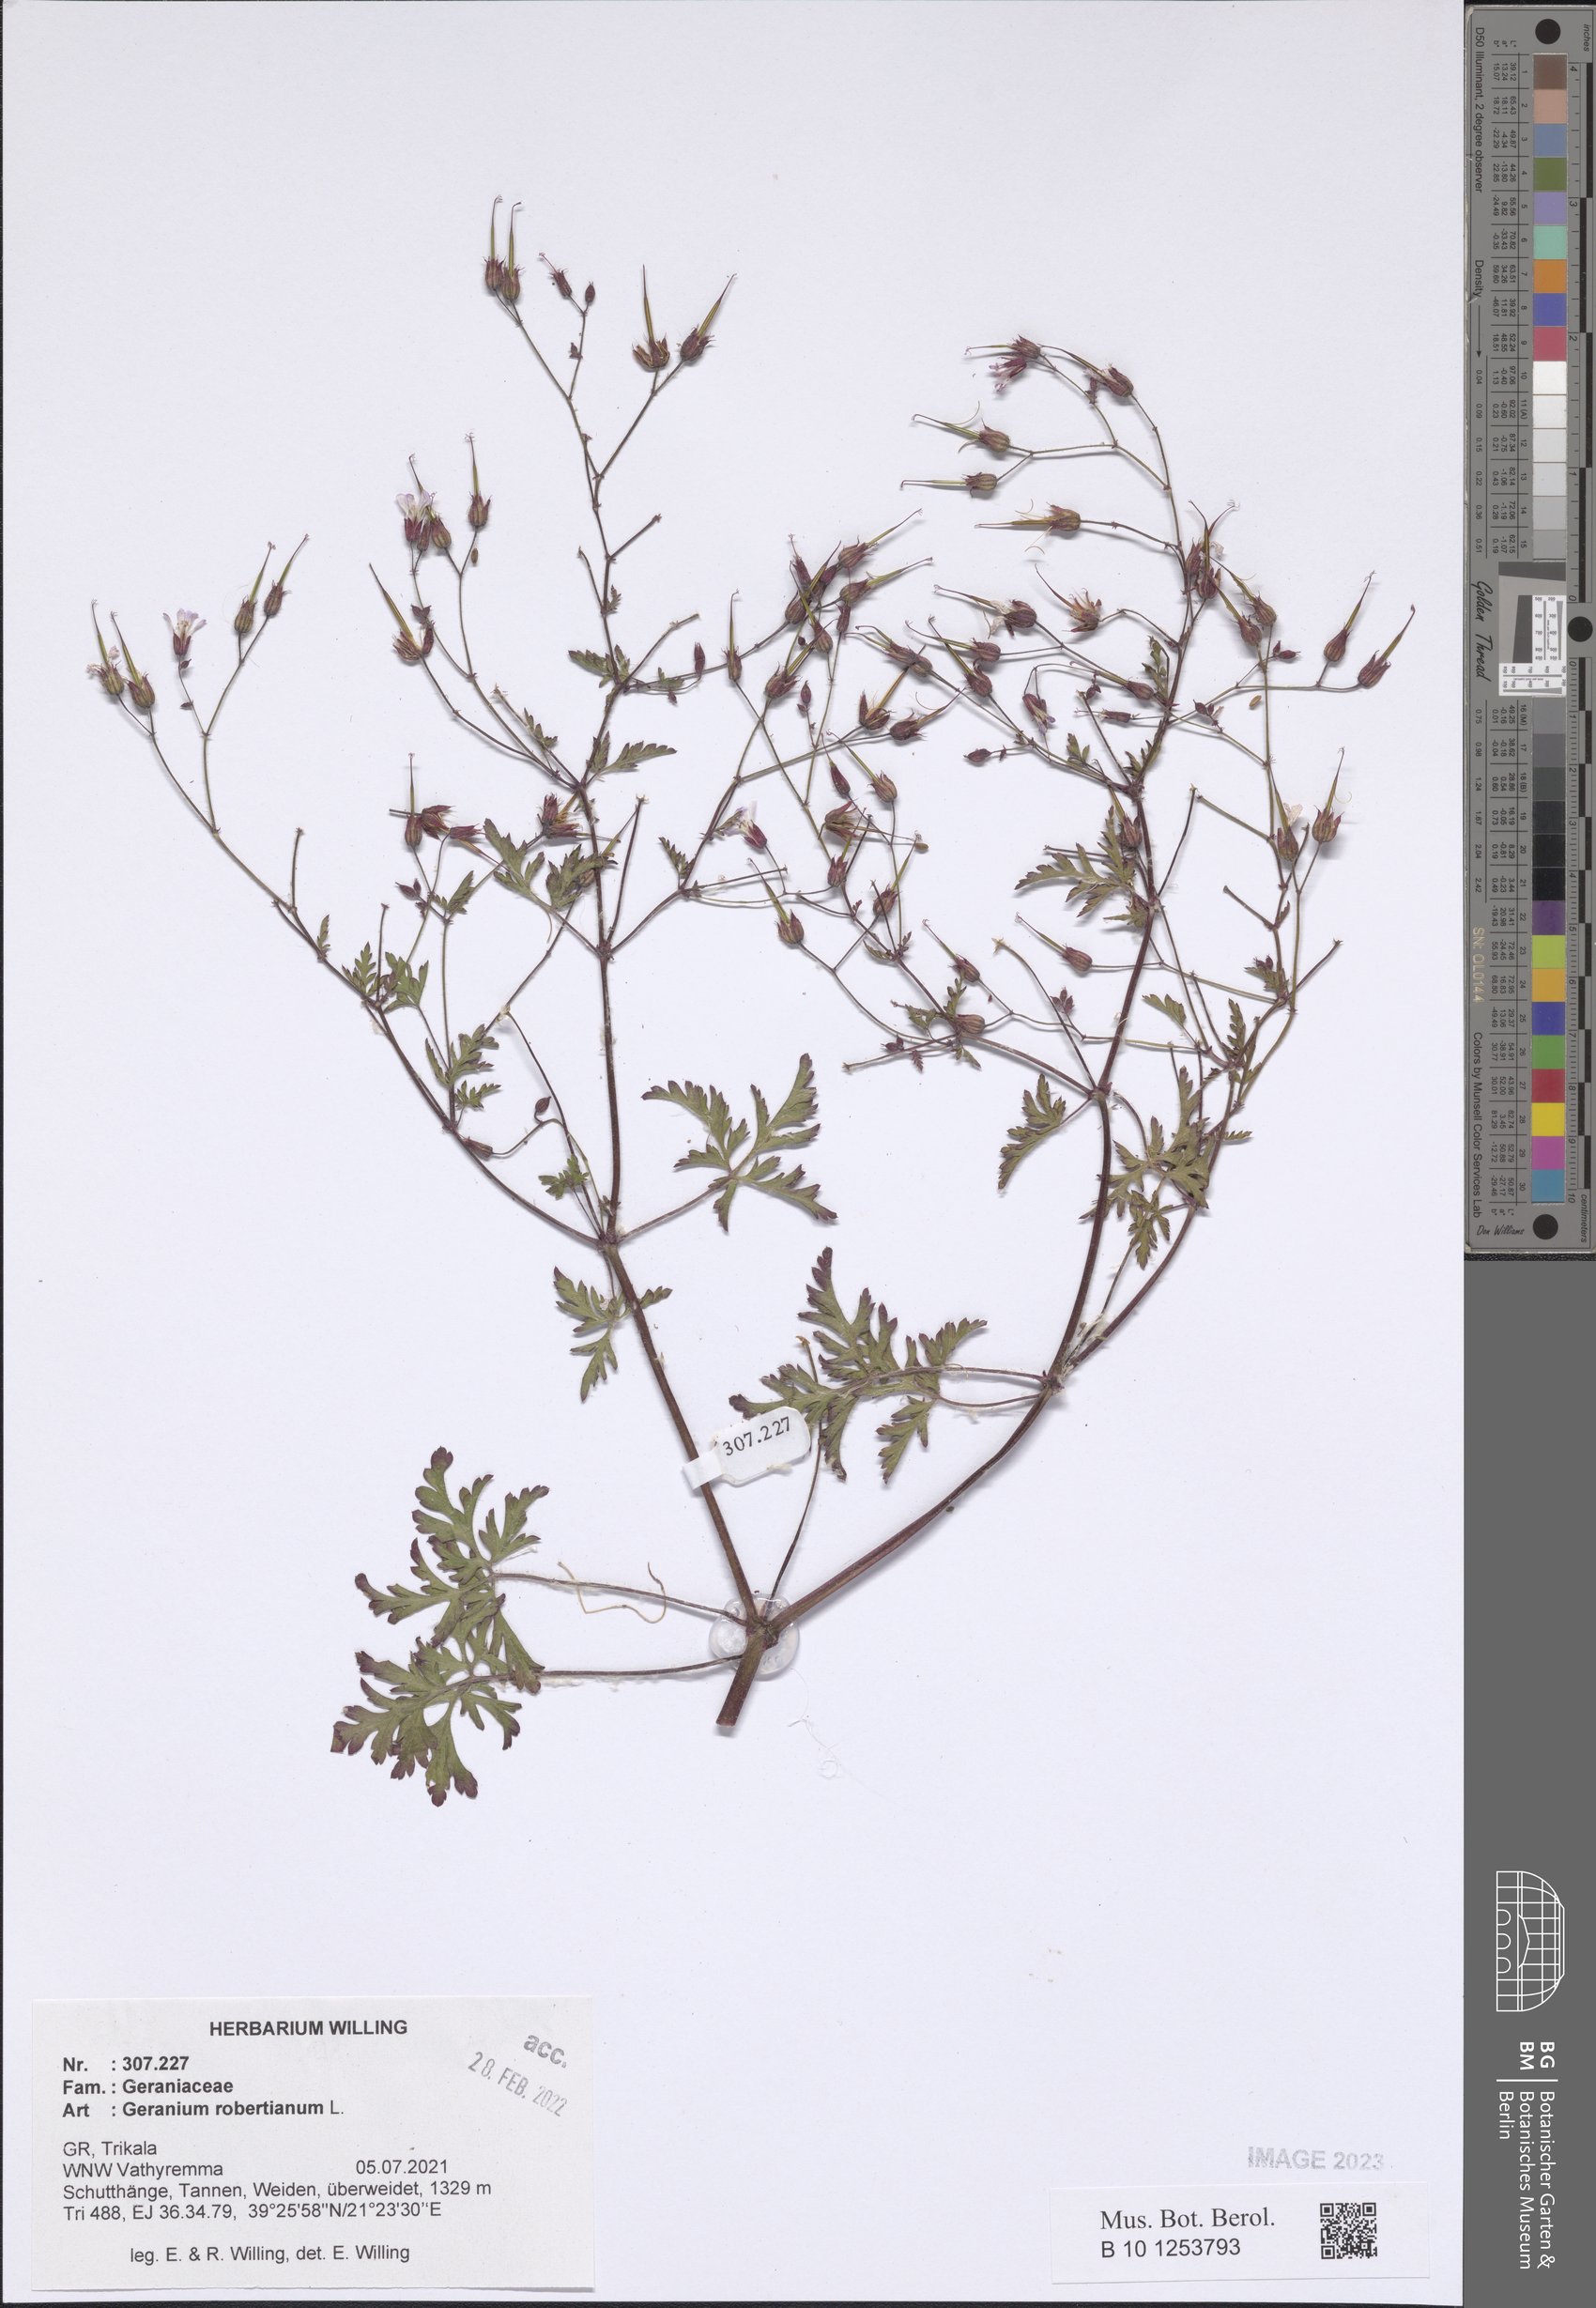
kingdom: Plantae
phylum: Tracheophyta
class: Magnoliopsida
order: Geraniales
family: Geraniaceae
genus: Geranium
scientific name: Geranium robertianum
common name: Herb-robert
